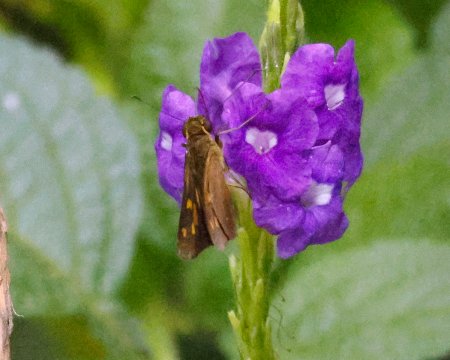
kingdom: Animalia
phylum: Arthropoda
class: Insecta
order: Lepidoptera
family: Hesperiidae
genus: Turesis
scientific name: Turesis lucas
